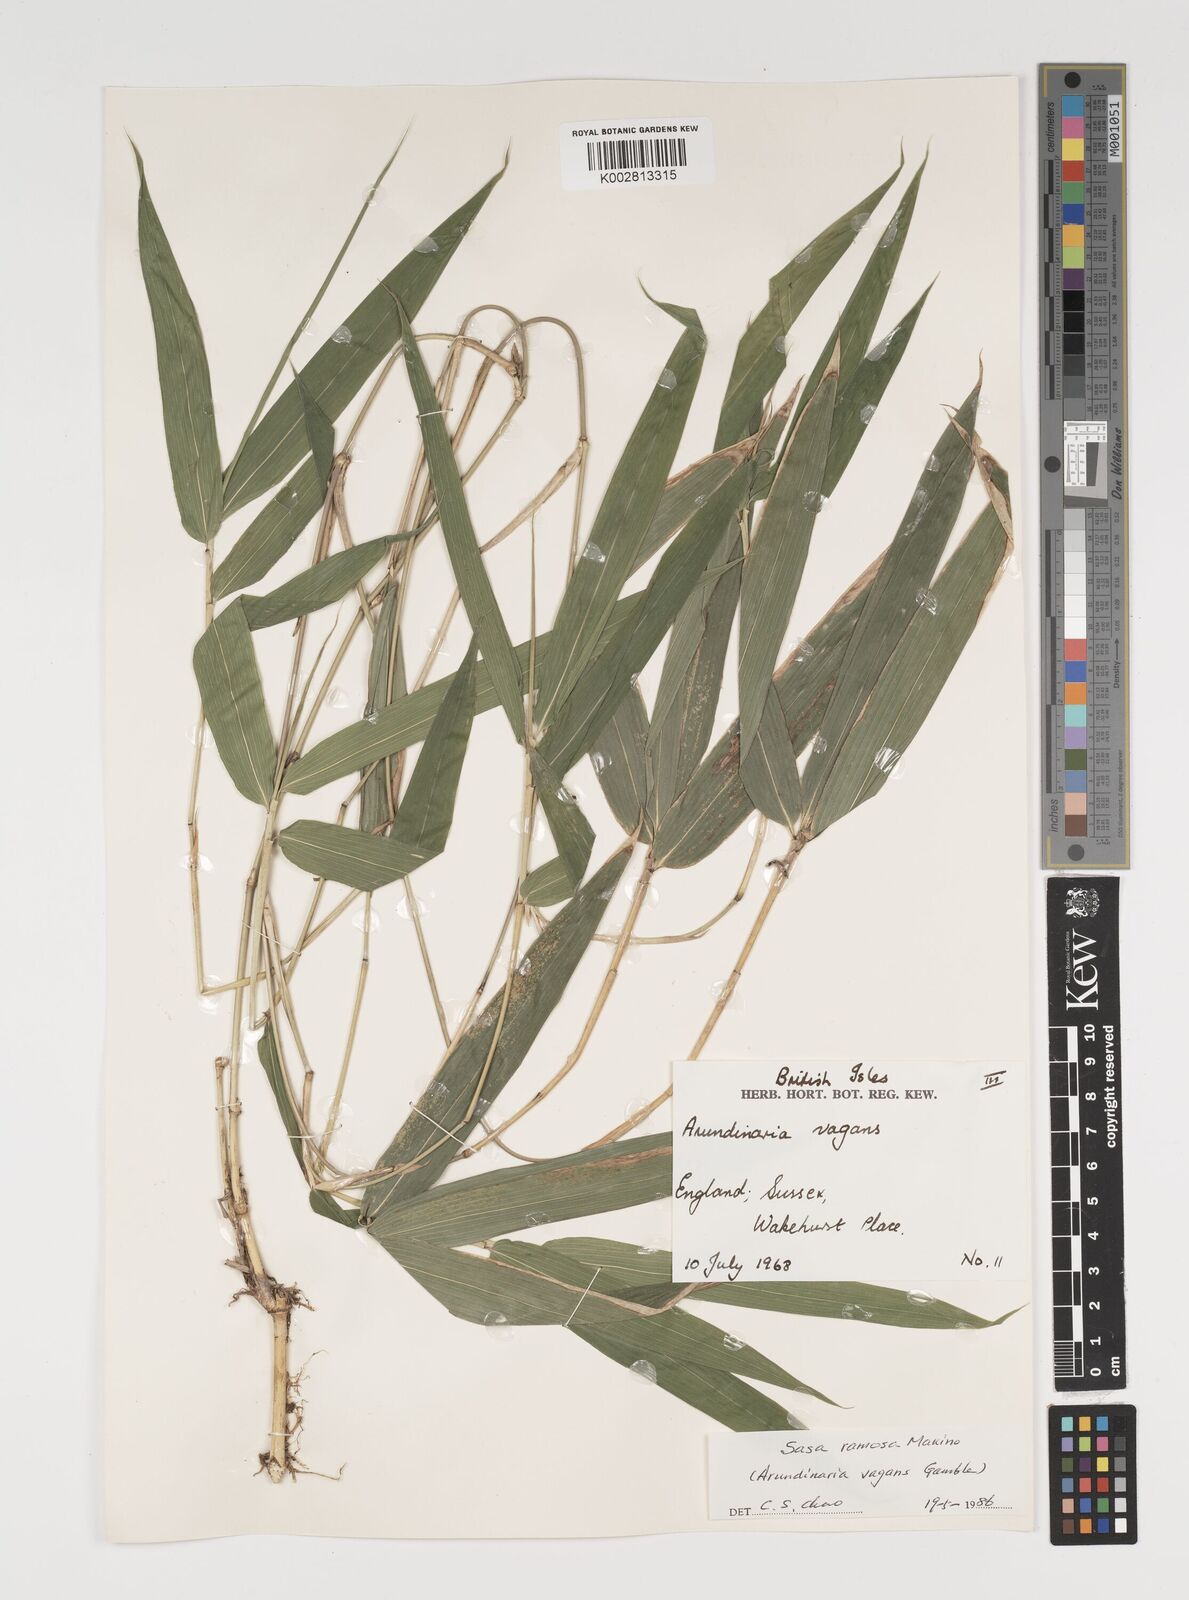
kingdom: Plantae
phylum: Tracheophyta
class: Liliopsida
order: Poales
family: Poaceae
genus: Sasaella
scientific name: Sasaella ramosa
